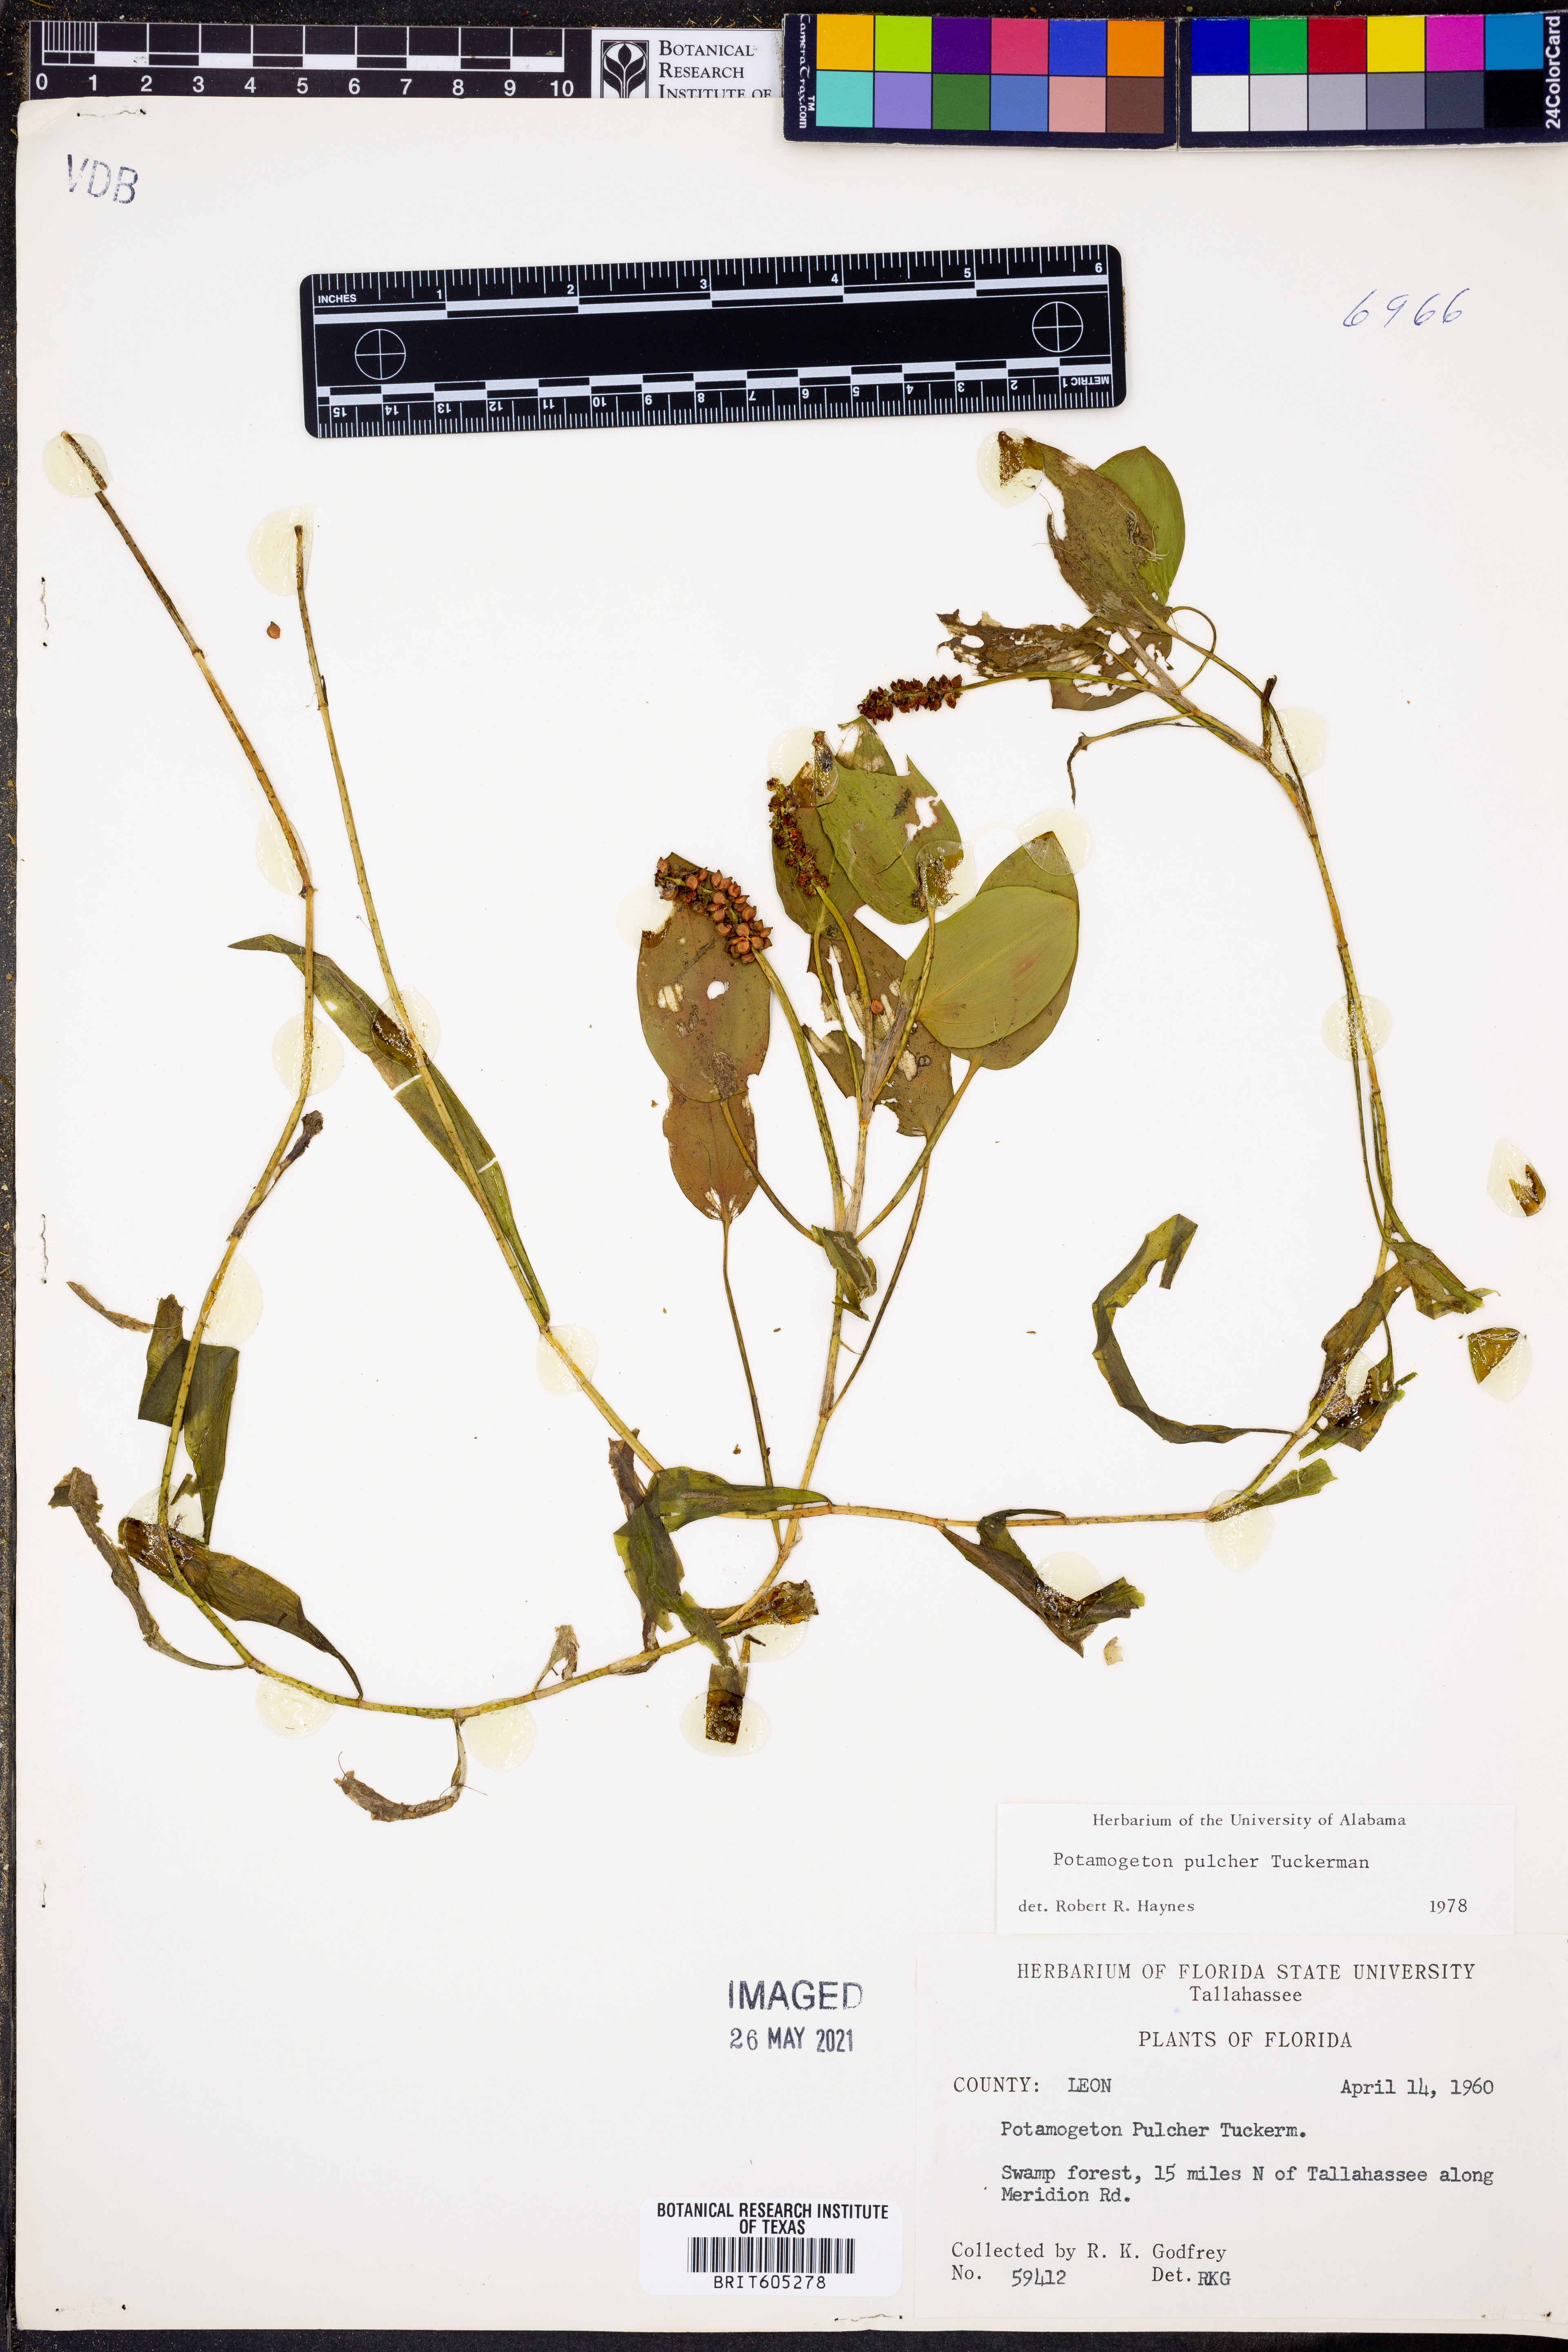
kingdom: Plantae
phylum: Tracheophyta
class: Liliopsida
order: Alismatales
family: Potamogetonaceae
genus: Potamogeton
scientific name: Potamogeton pulcher
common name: Heart-leaved pondweed
